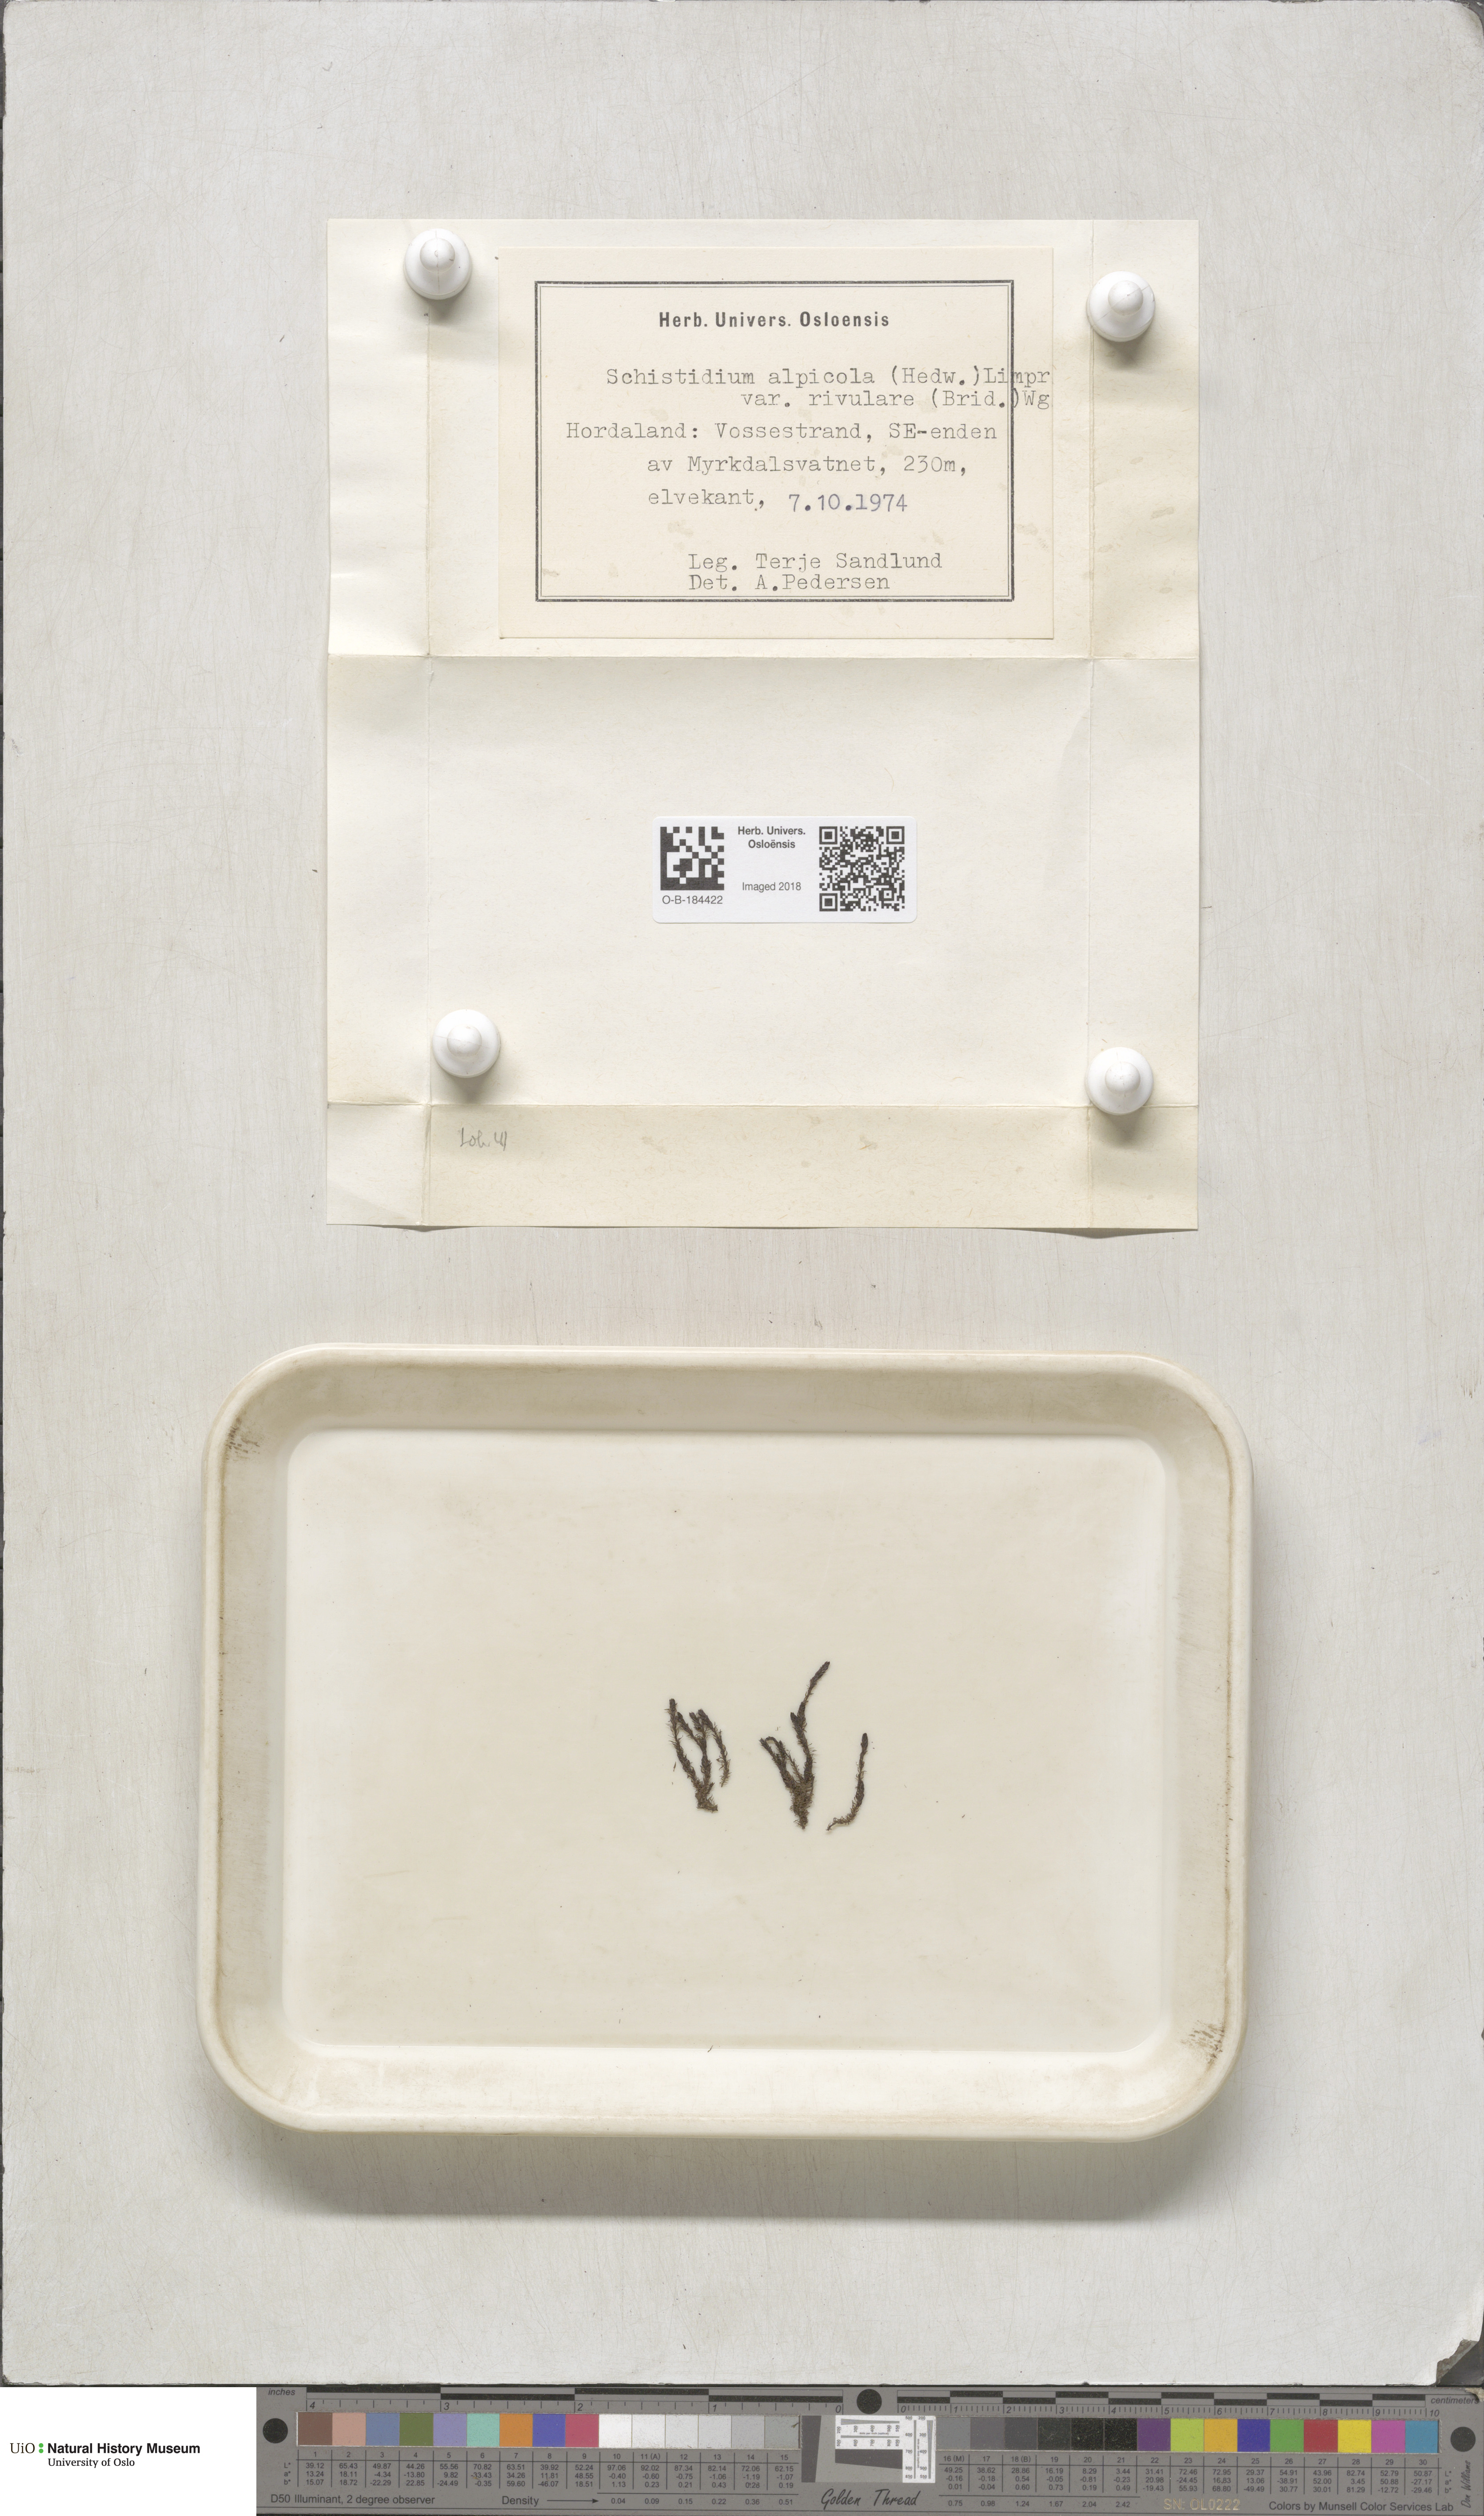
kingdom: Plantae
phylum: Bryophyta
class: Bryopsida
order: Grimmiales
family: Grimmiaceae
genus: Schistidium
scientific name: Schistidium rivulare
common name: River bloom moss
